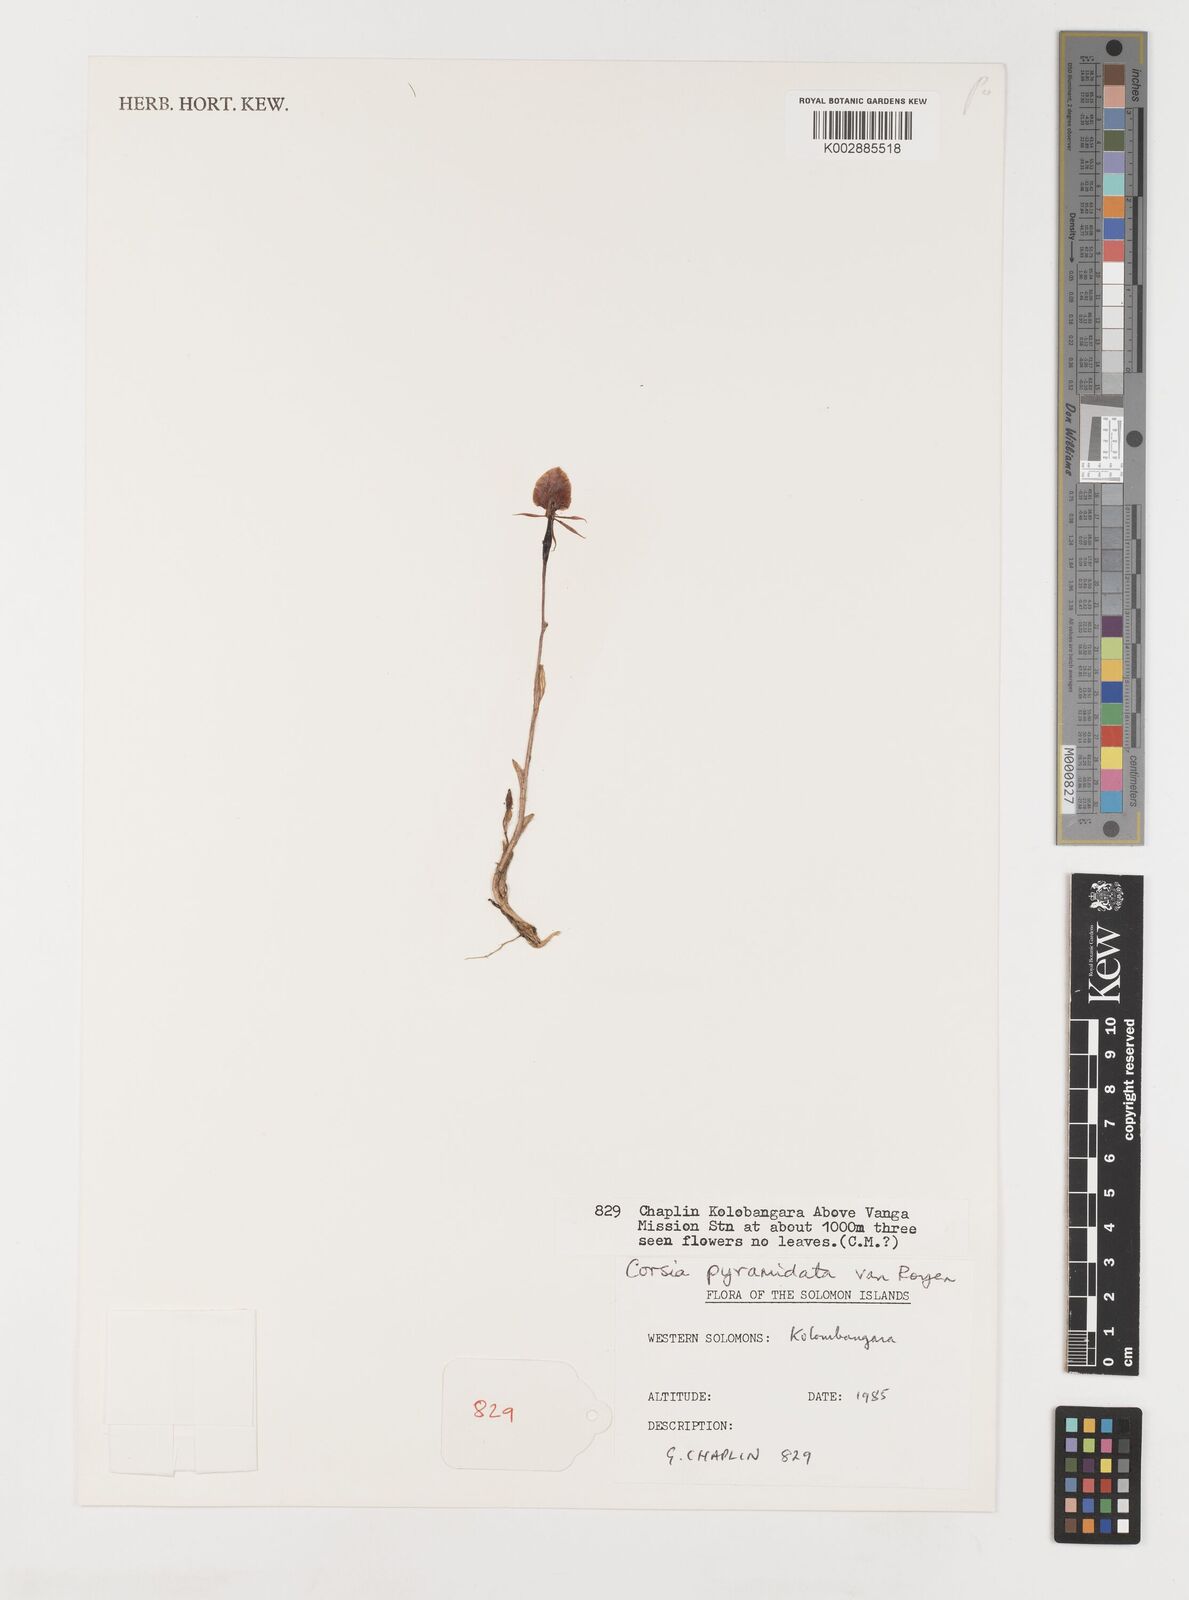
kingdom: Plantae
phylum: Tracheophyta
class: Liliopsida
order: Liliales
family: Corsiaceae
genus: Corsia
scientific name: Corsia pyramidata
